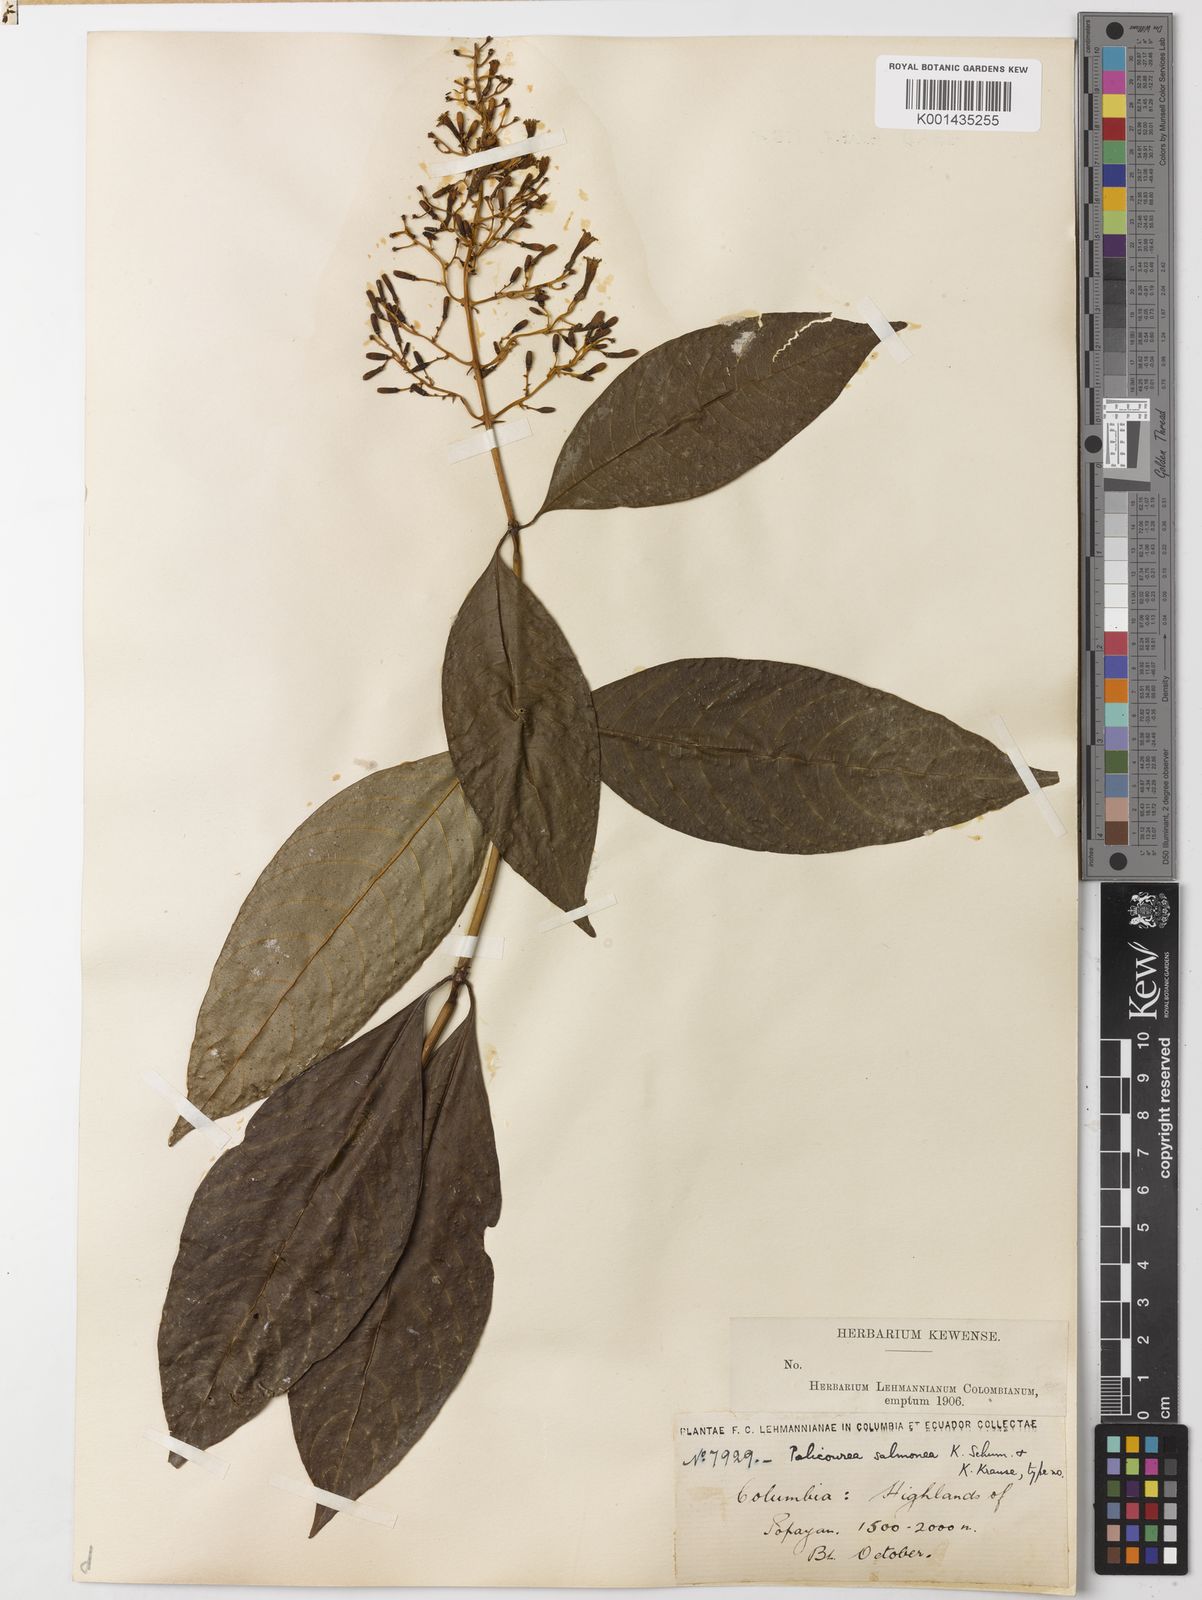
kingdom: Plantae
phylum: Tracheophyta
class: Magnoliopsida
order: Gentianales
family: Rubiaceae
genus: Palicourea
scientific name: Palicourea thyrsiflora
